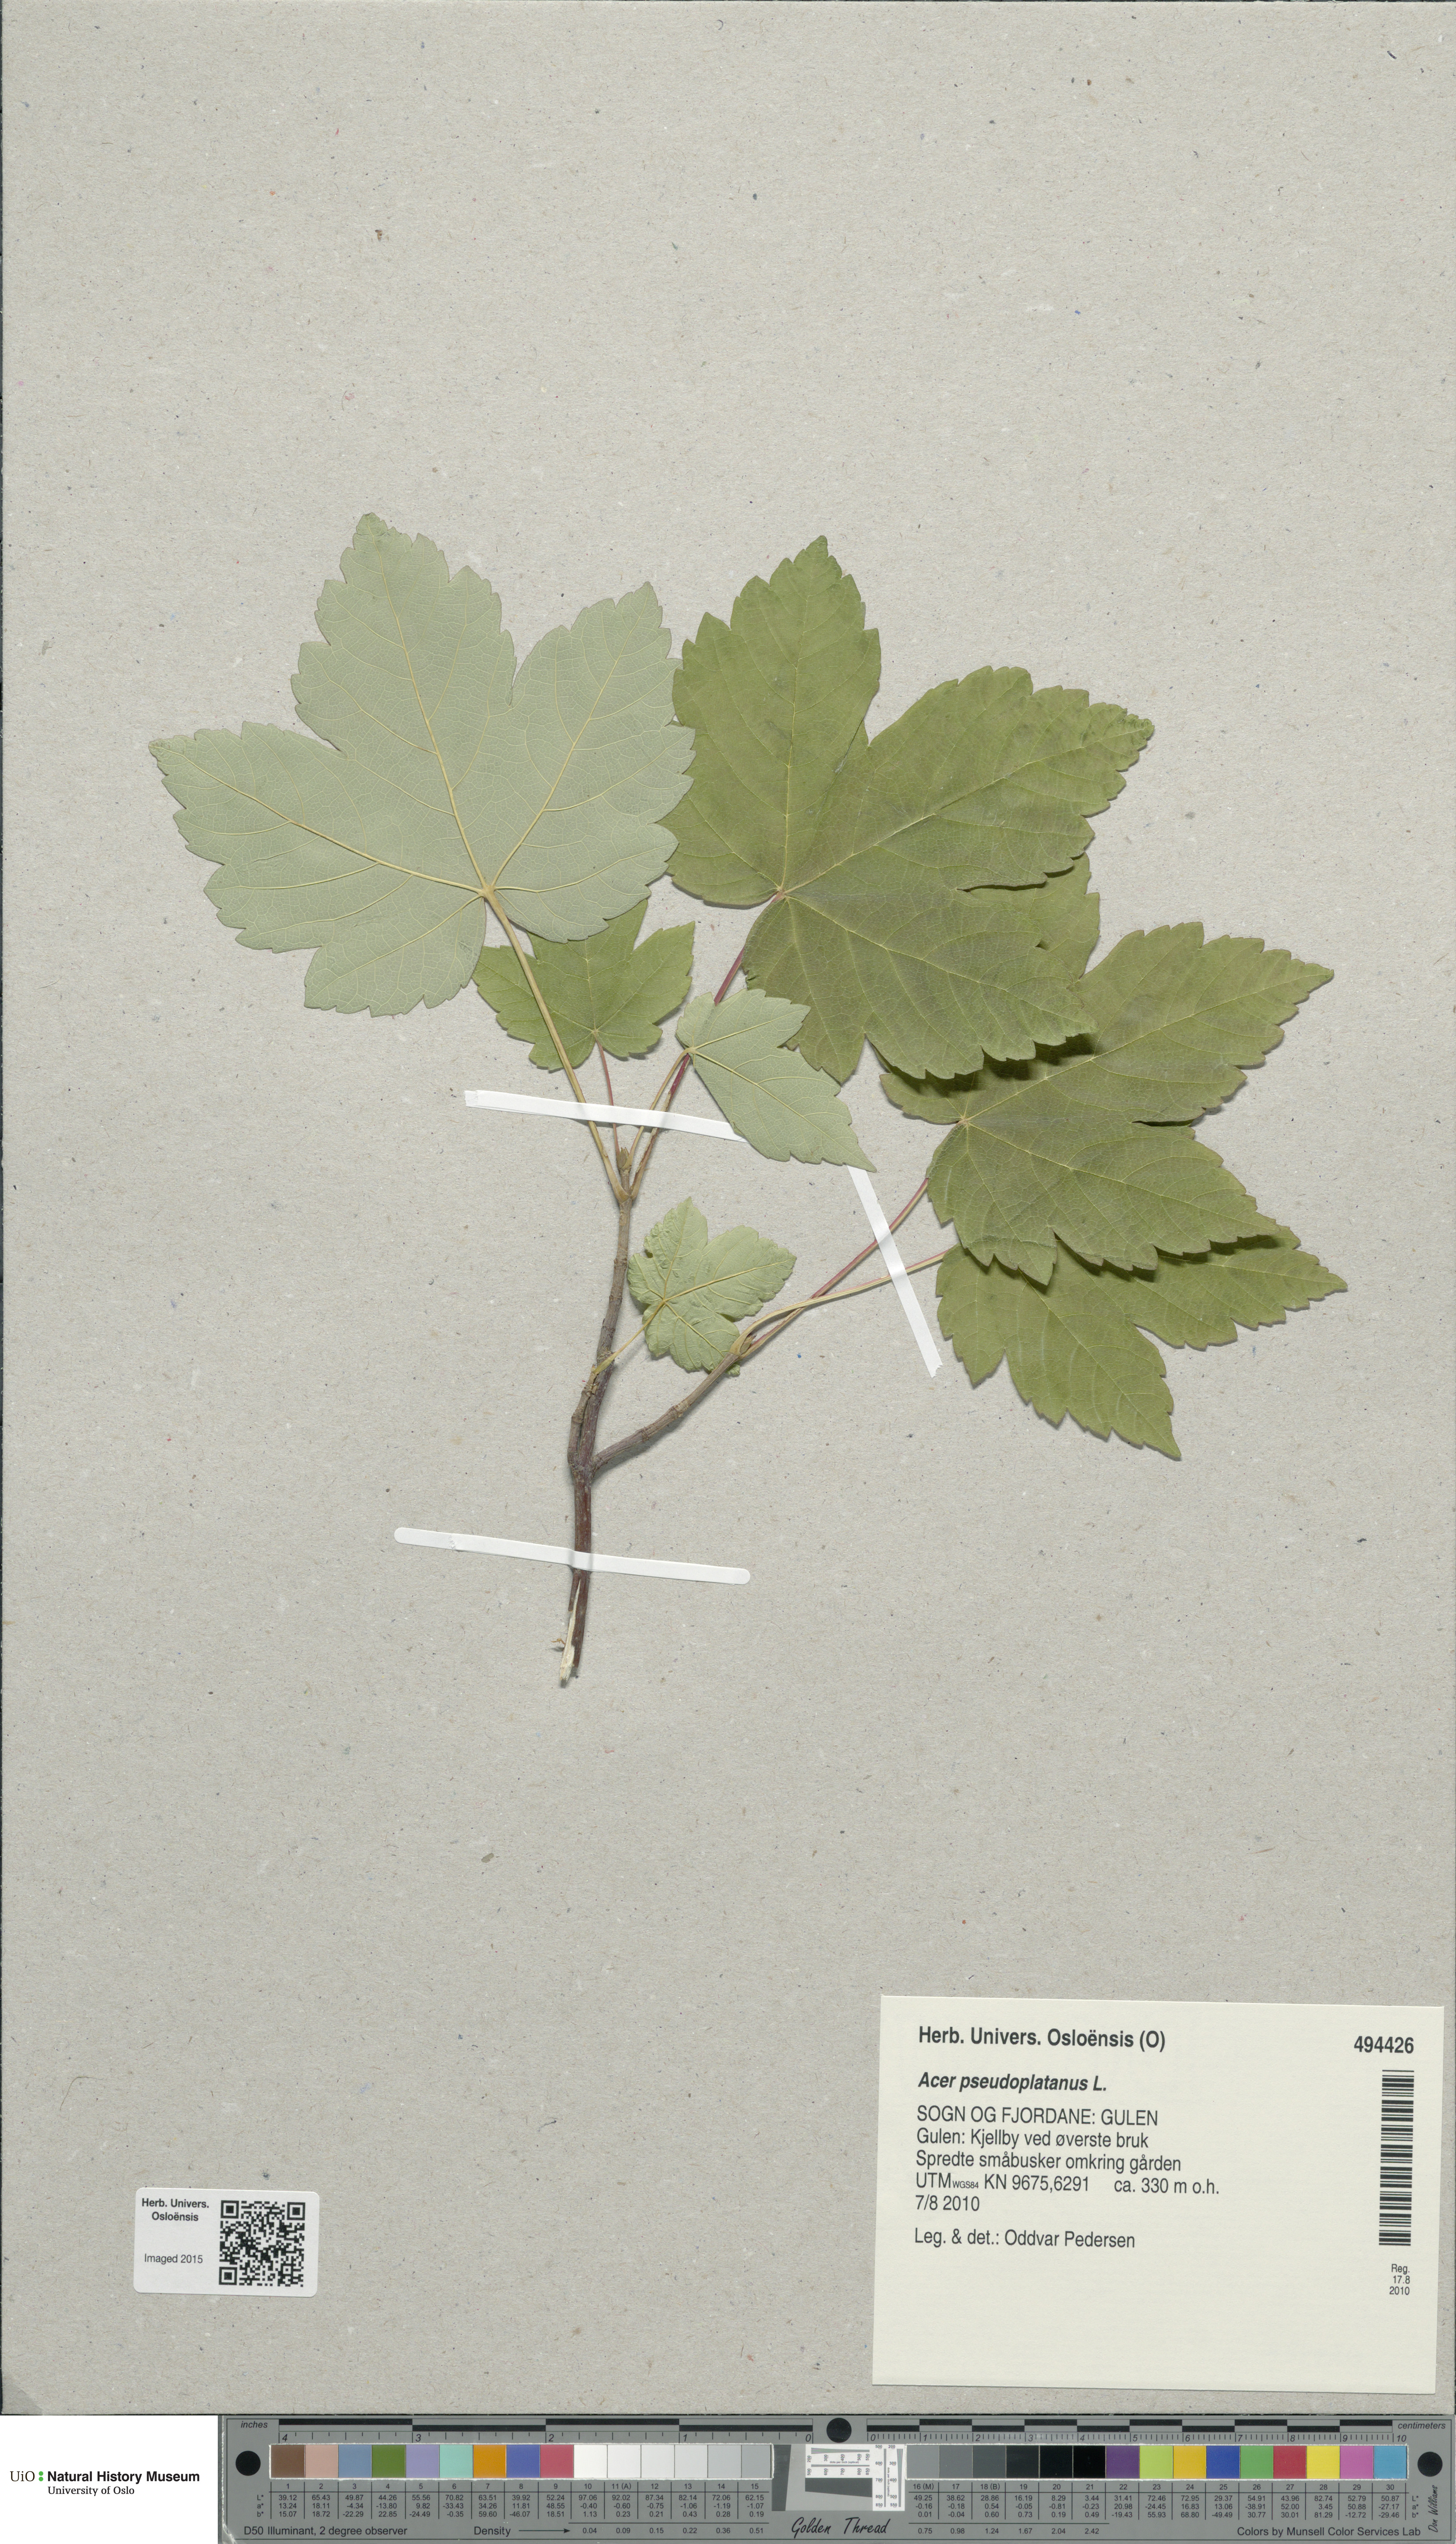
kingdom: Plantae
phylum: Tracheophyta
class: Magnoliopsida
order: Sapindales
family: Sapindaceae
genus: Acer
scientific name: Acer pseudoplatanus
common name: Sycamore
